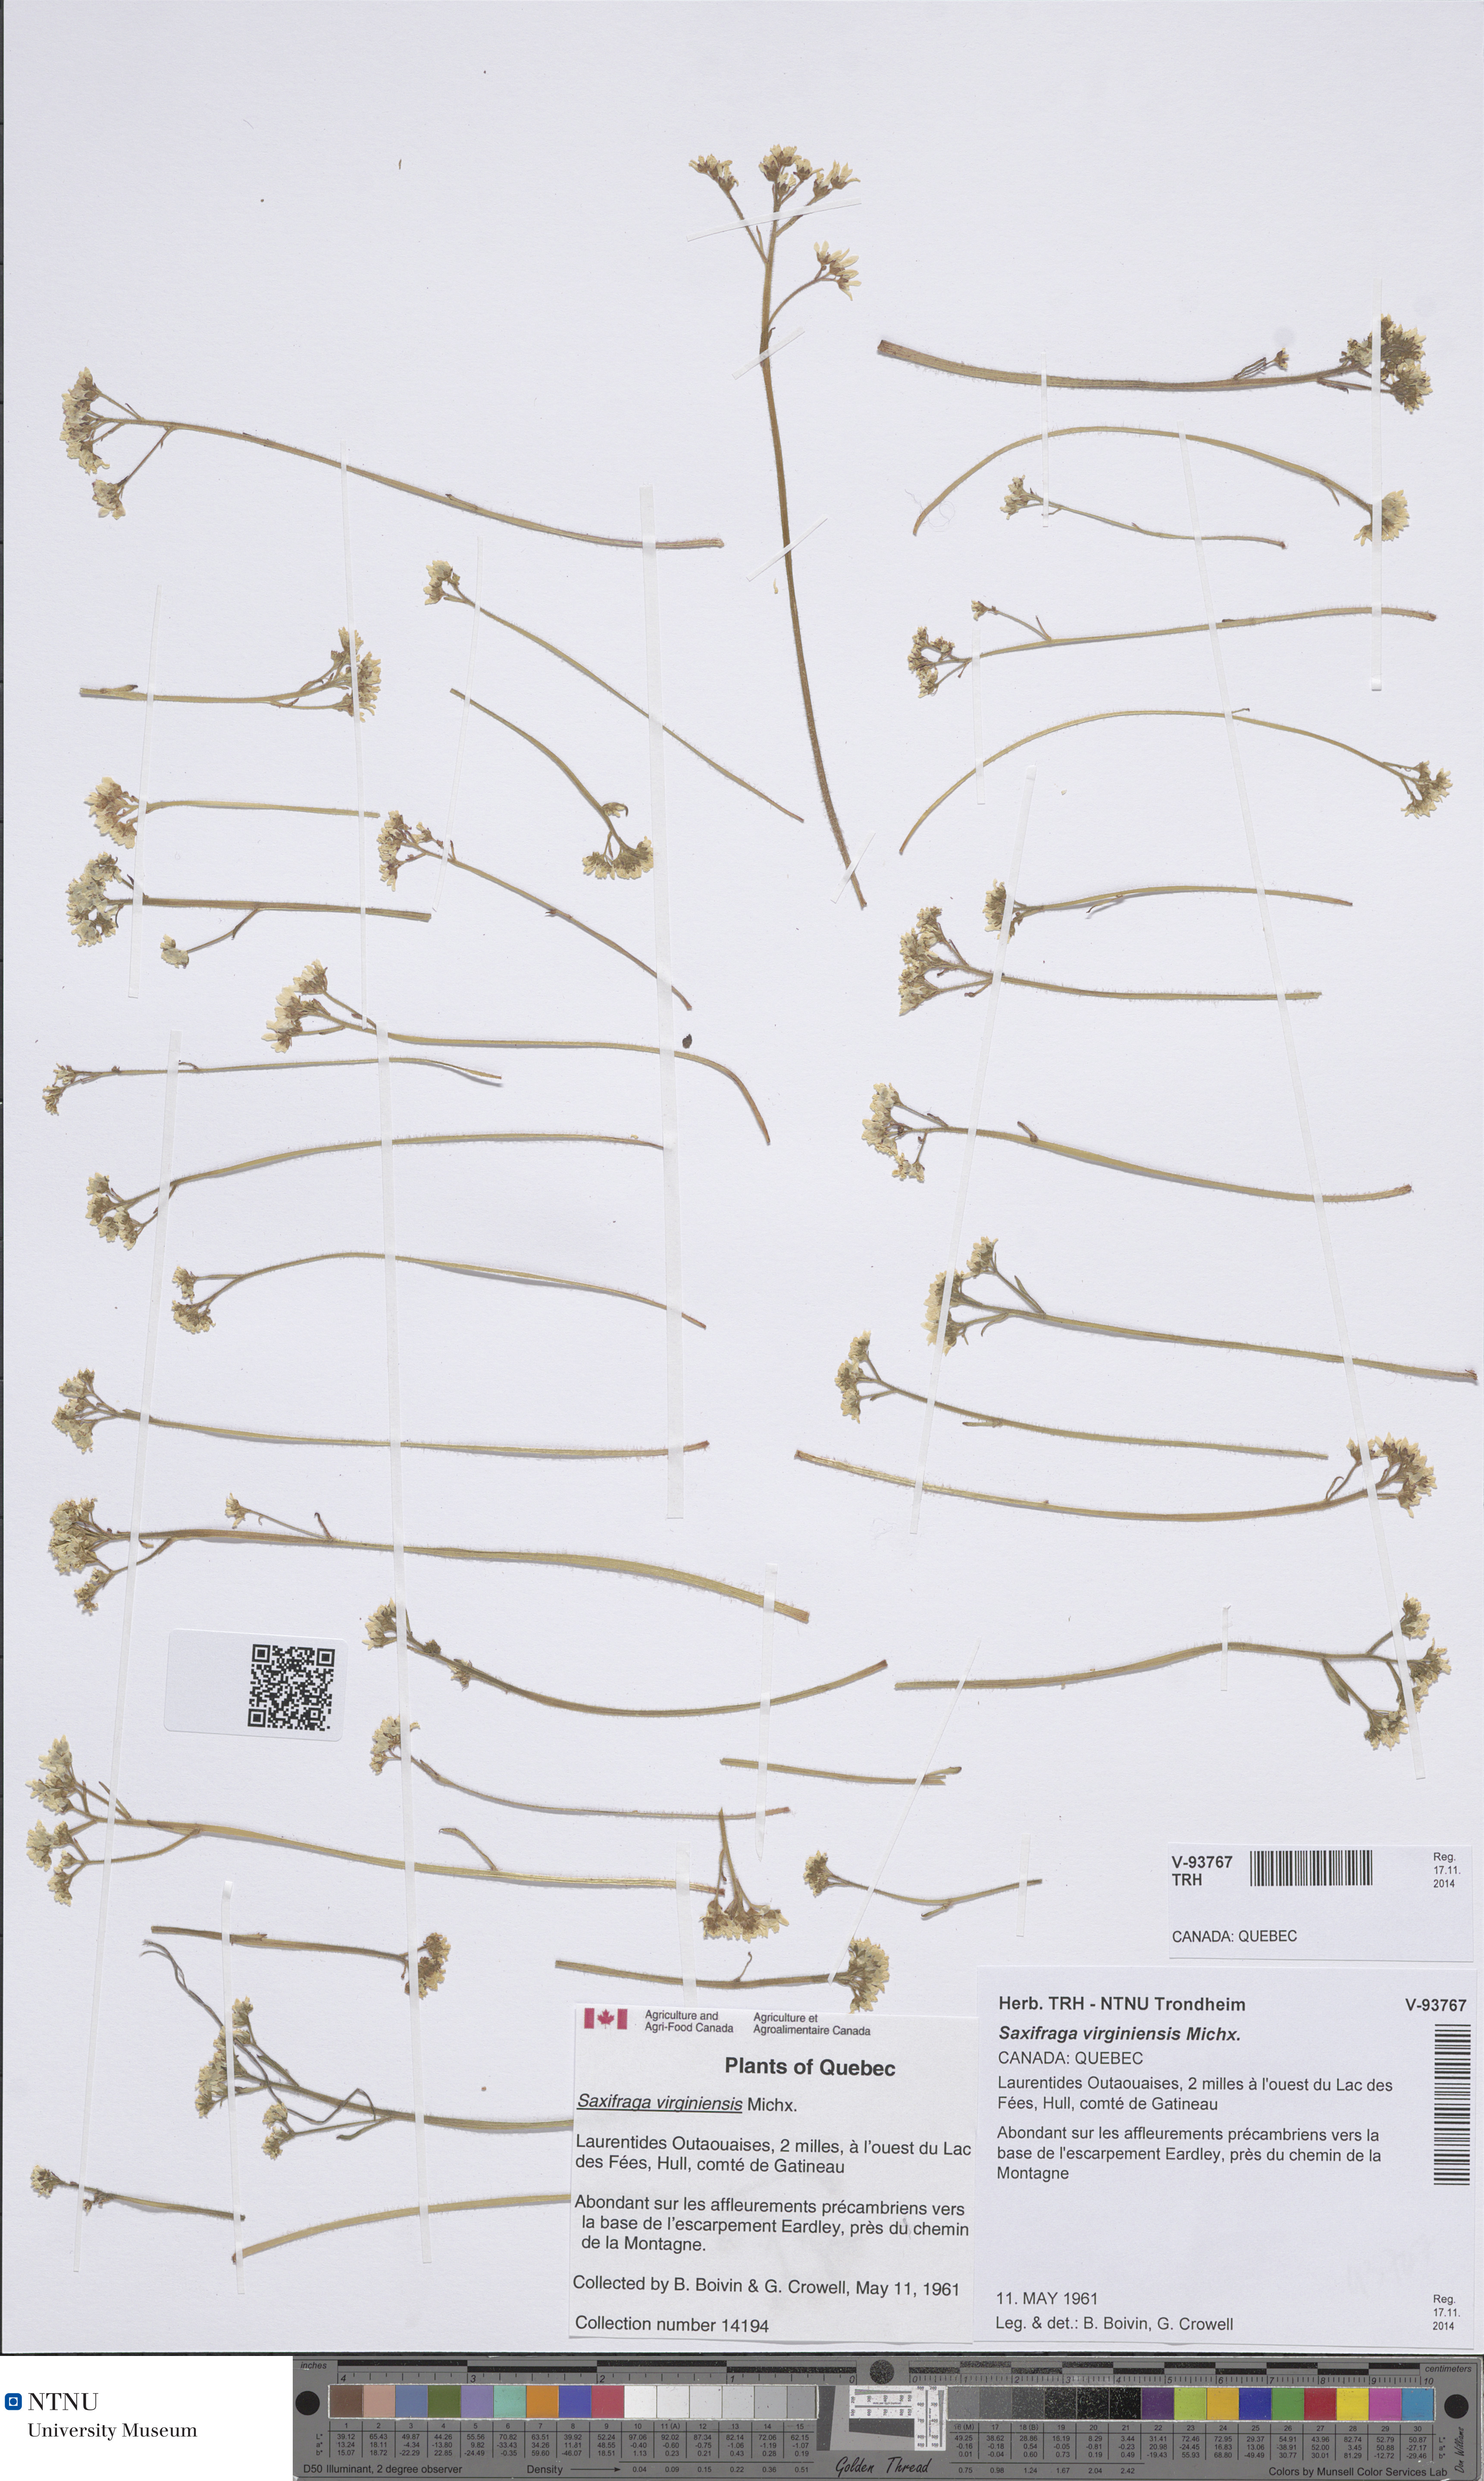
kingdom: Plantae
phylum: Tracheophyta
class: Magnoliopsida
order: Saxifragales
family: Saxifragaceae
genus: Micranthes
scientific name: Micranthes virginiensis
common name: Early saxifrage
